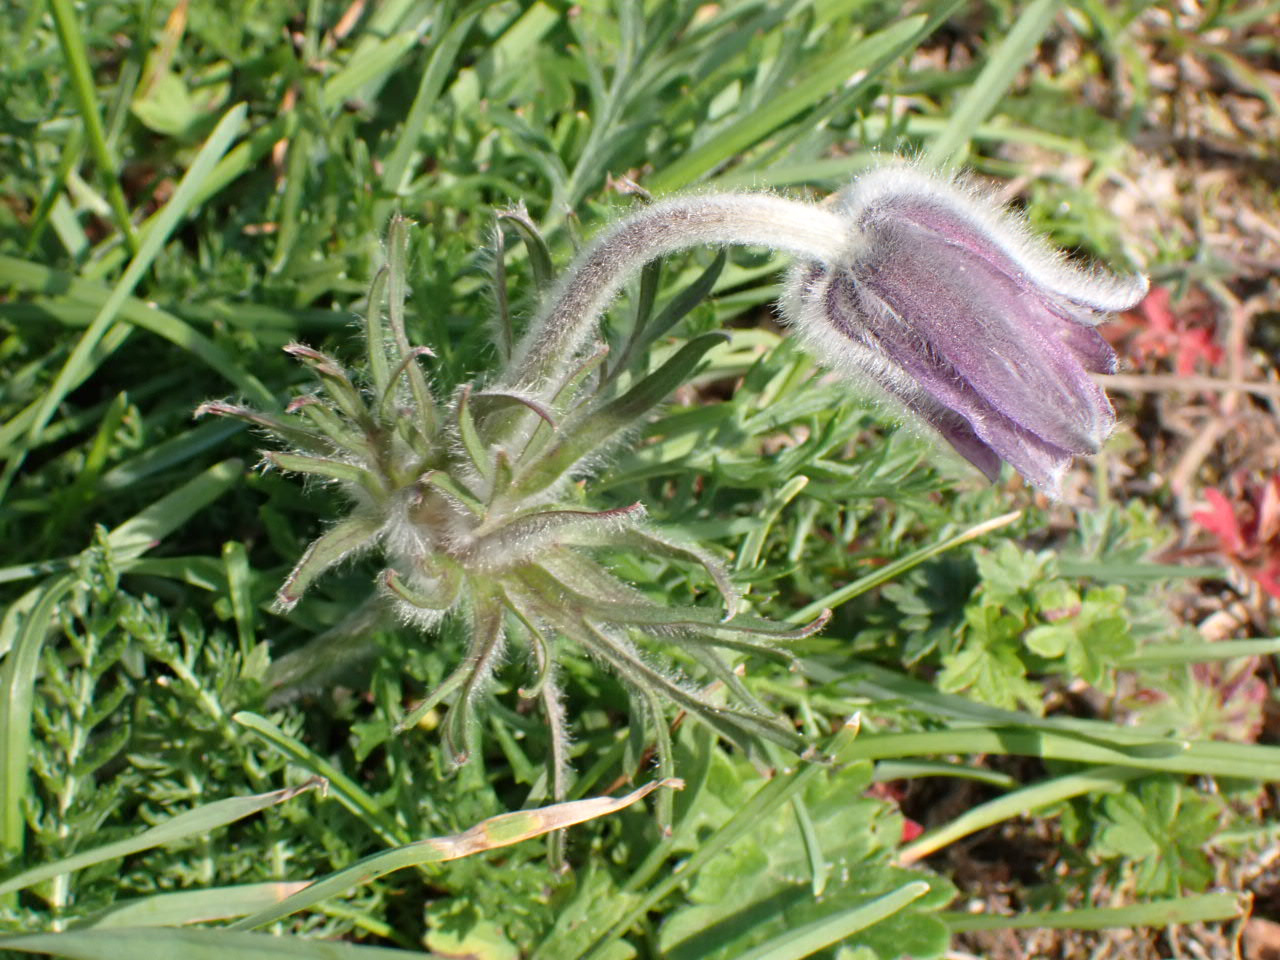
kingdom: Plantae
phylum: Tracheophyta
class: Magnoliopsida
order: Ranunculales
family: Ranunculaceae
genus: Pulsatilla
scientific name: Pulsatilla pratensis
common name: Nikkende kobjælde
